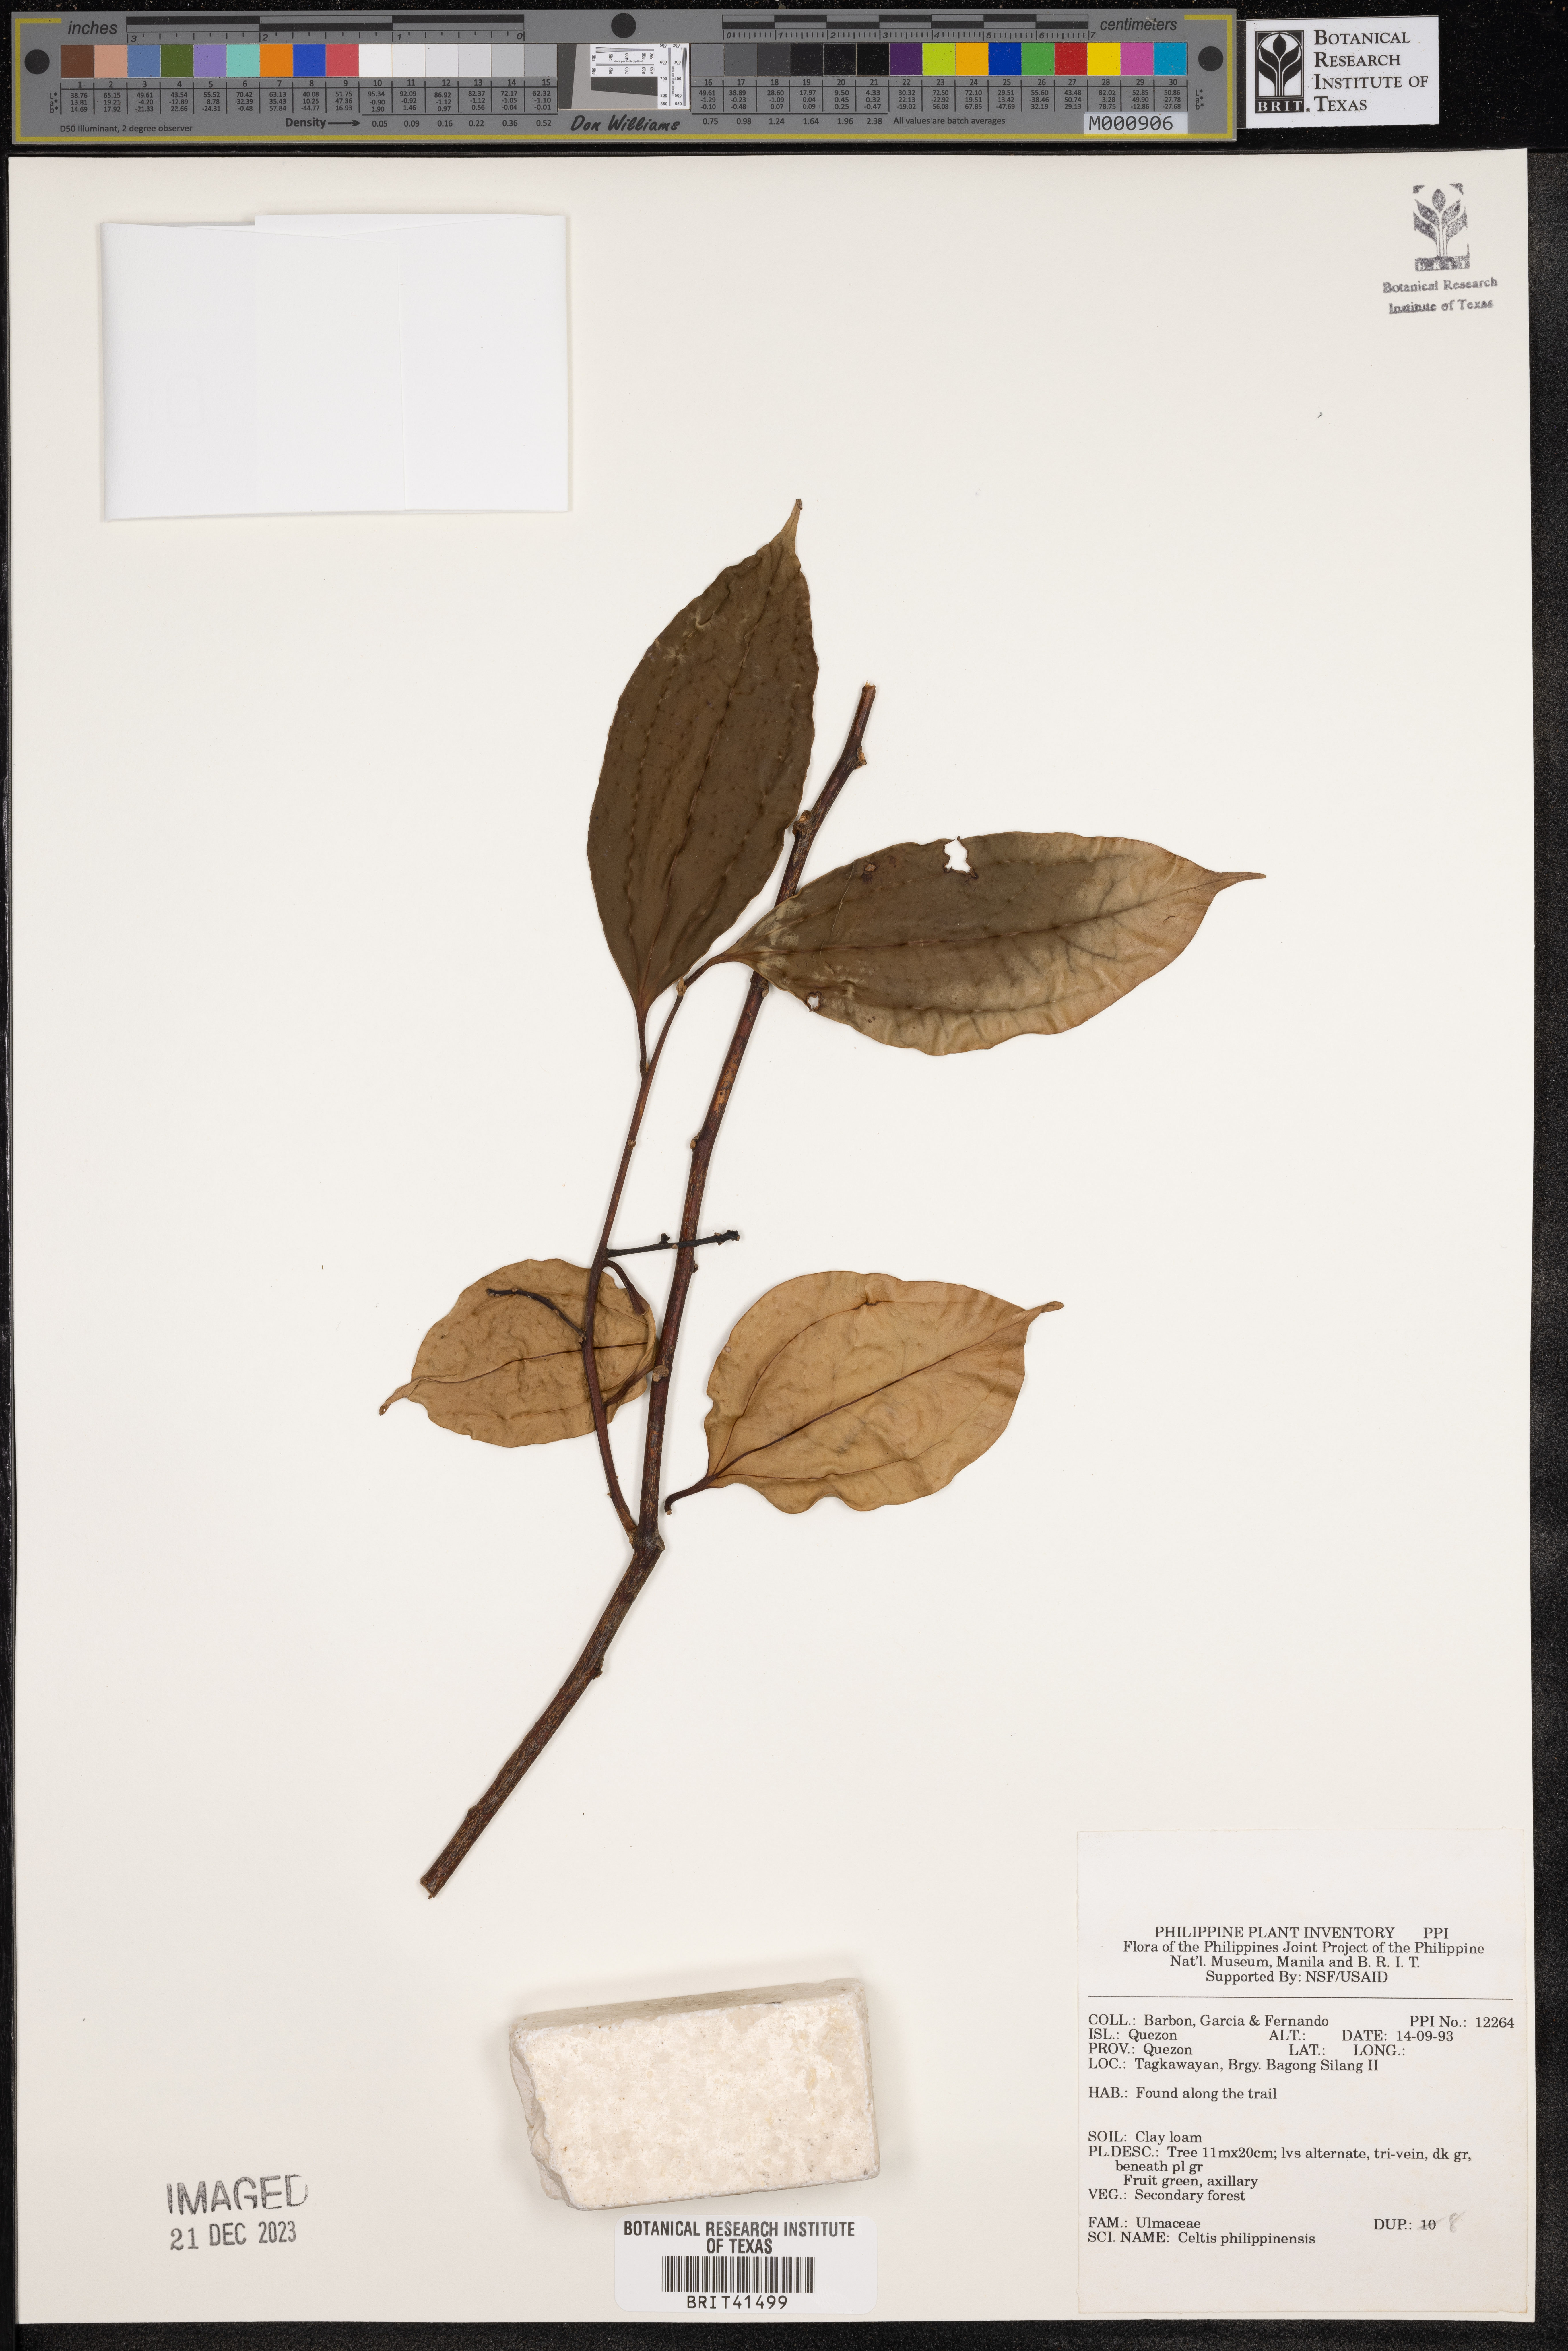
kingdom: Plantae
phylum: Tracheophyta
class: Magnoliopsida
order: Rosales
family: Cannabaceae
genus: Celtis
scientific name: Celtis philippinensis
